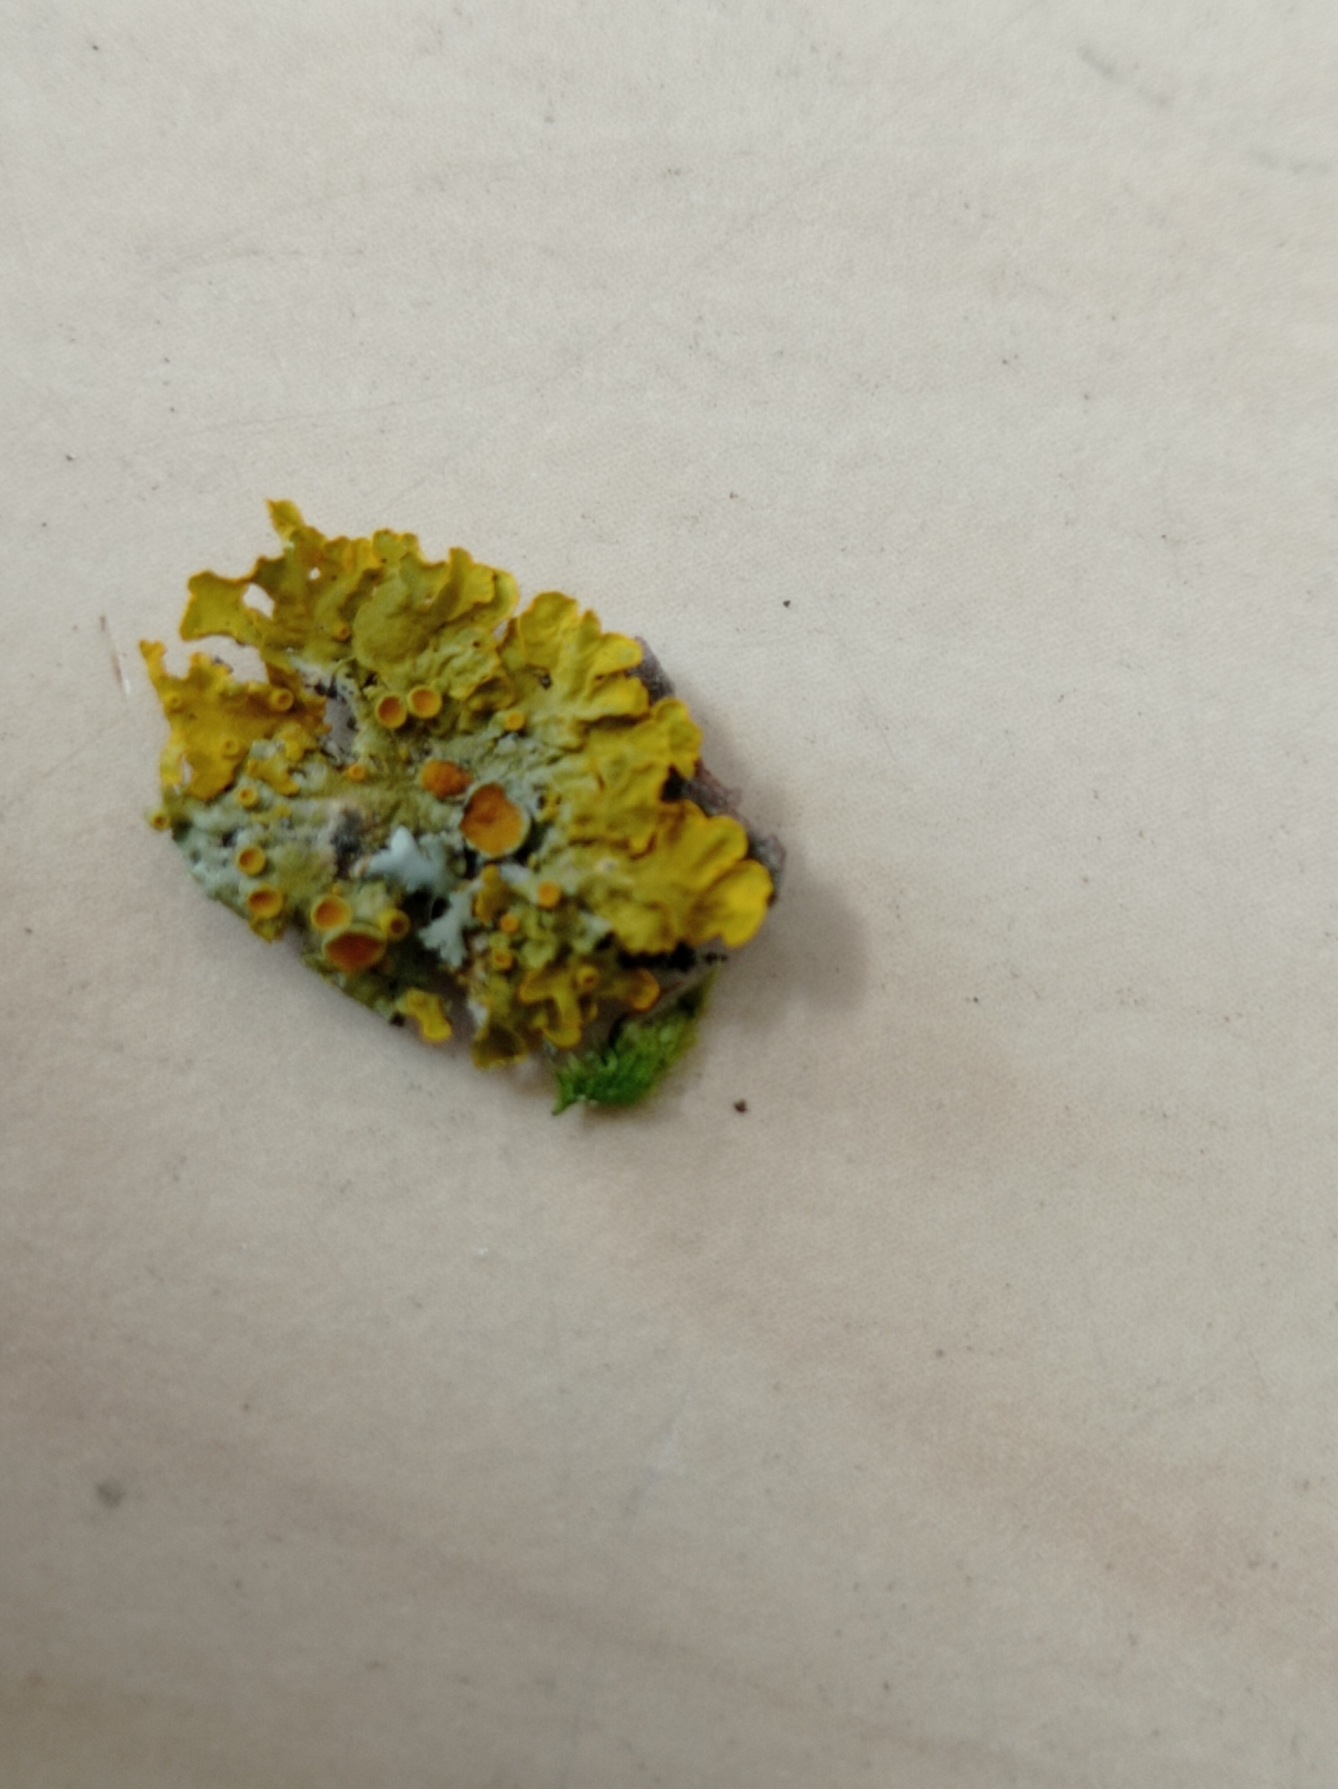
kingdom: Fungi
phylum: Ascomycota
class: Lecanoromycetes
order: Teloschistales
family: Teloschistaceae
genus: Xanthoria
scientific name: Xanthoria parietina
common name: Almindelig væggelav
